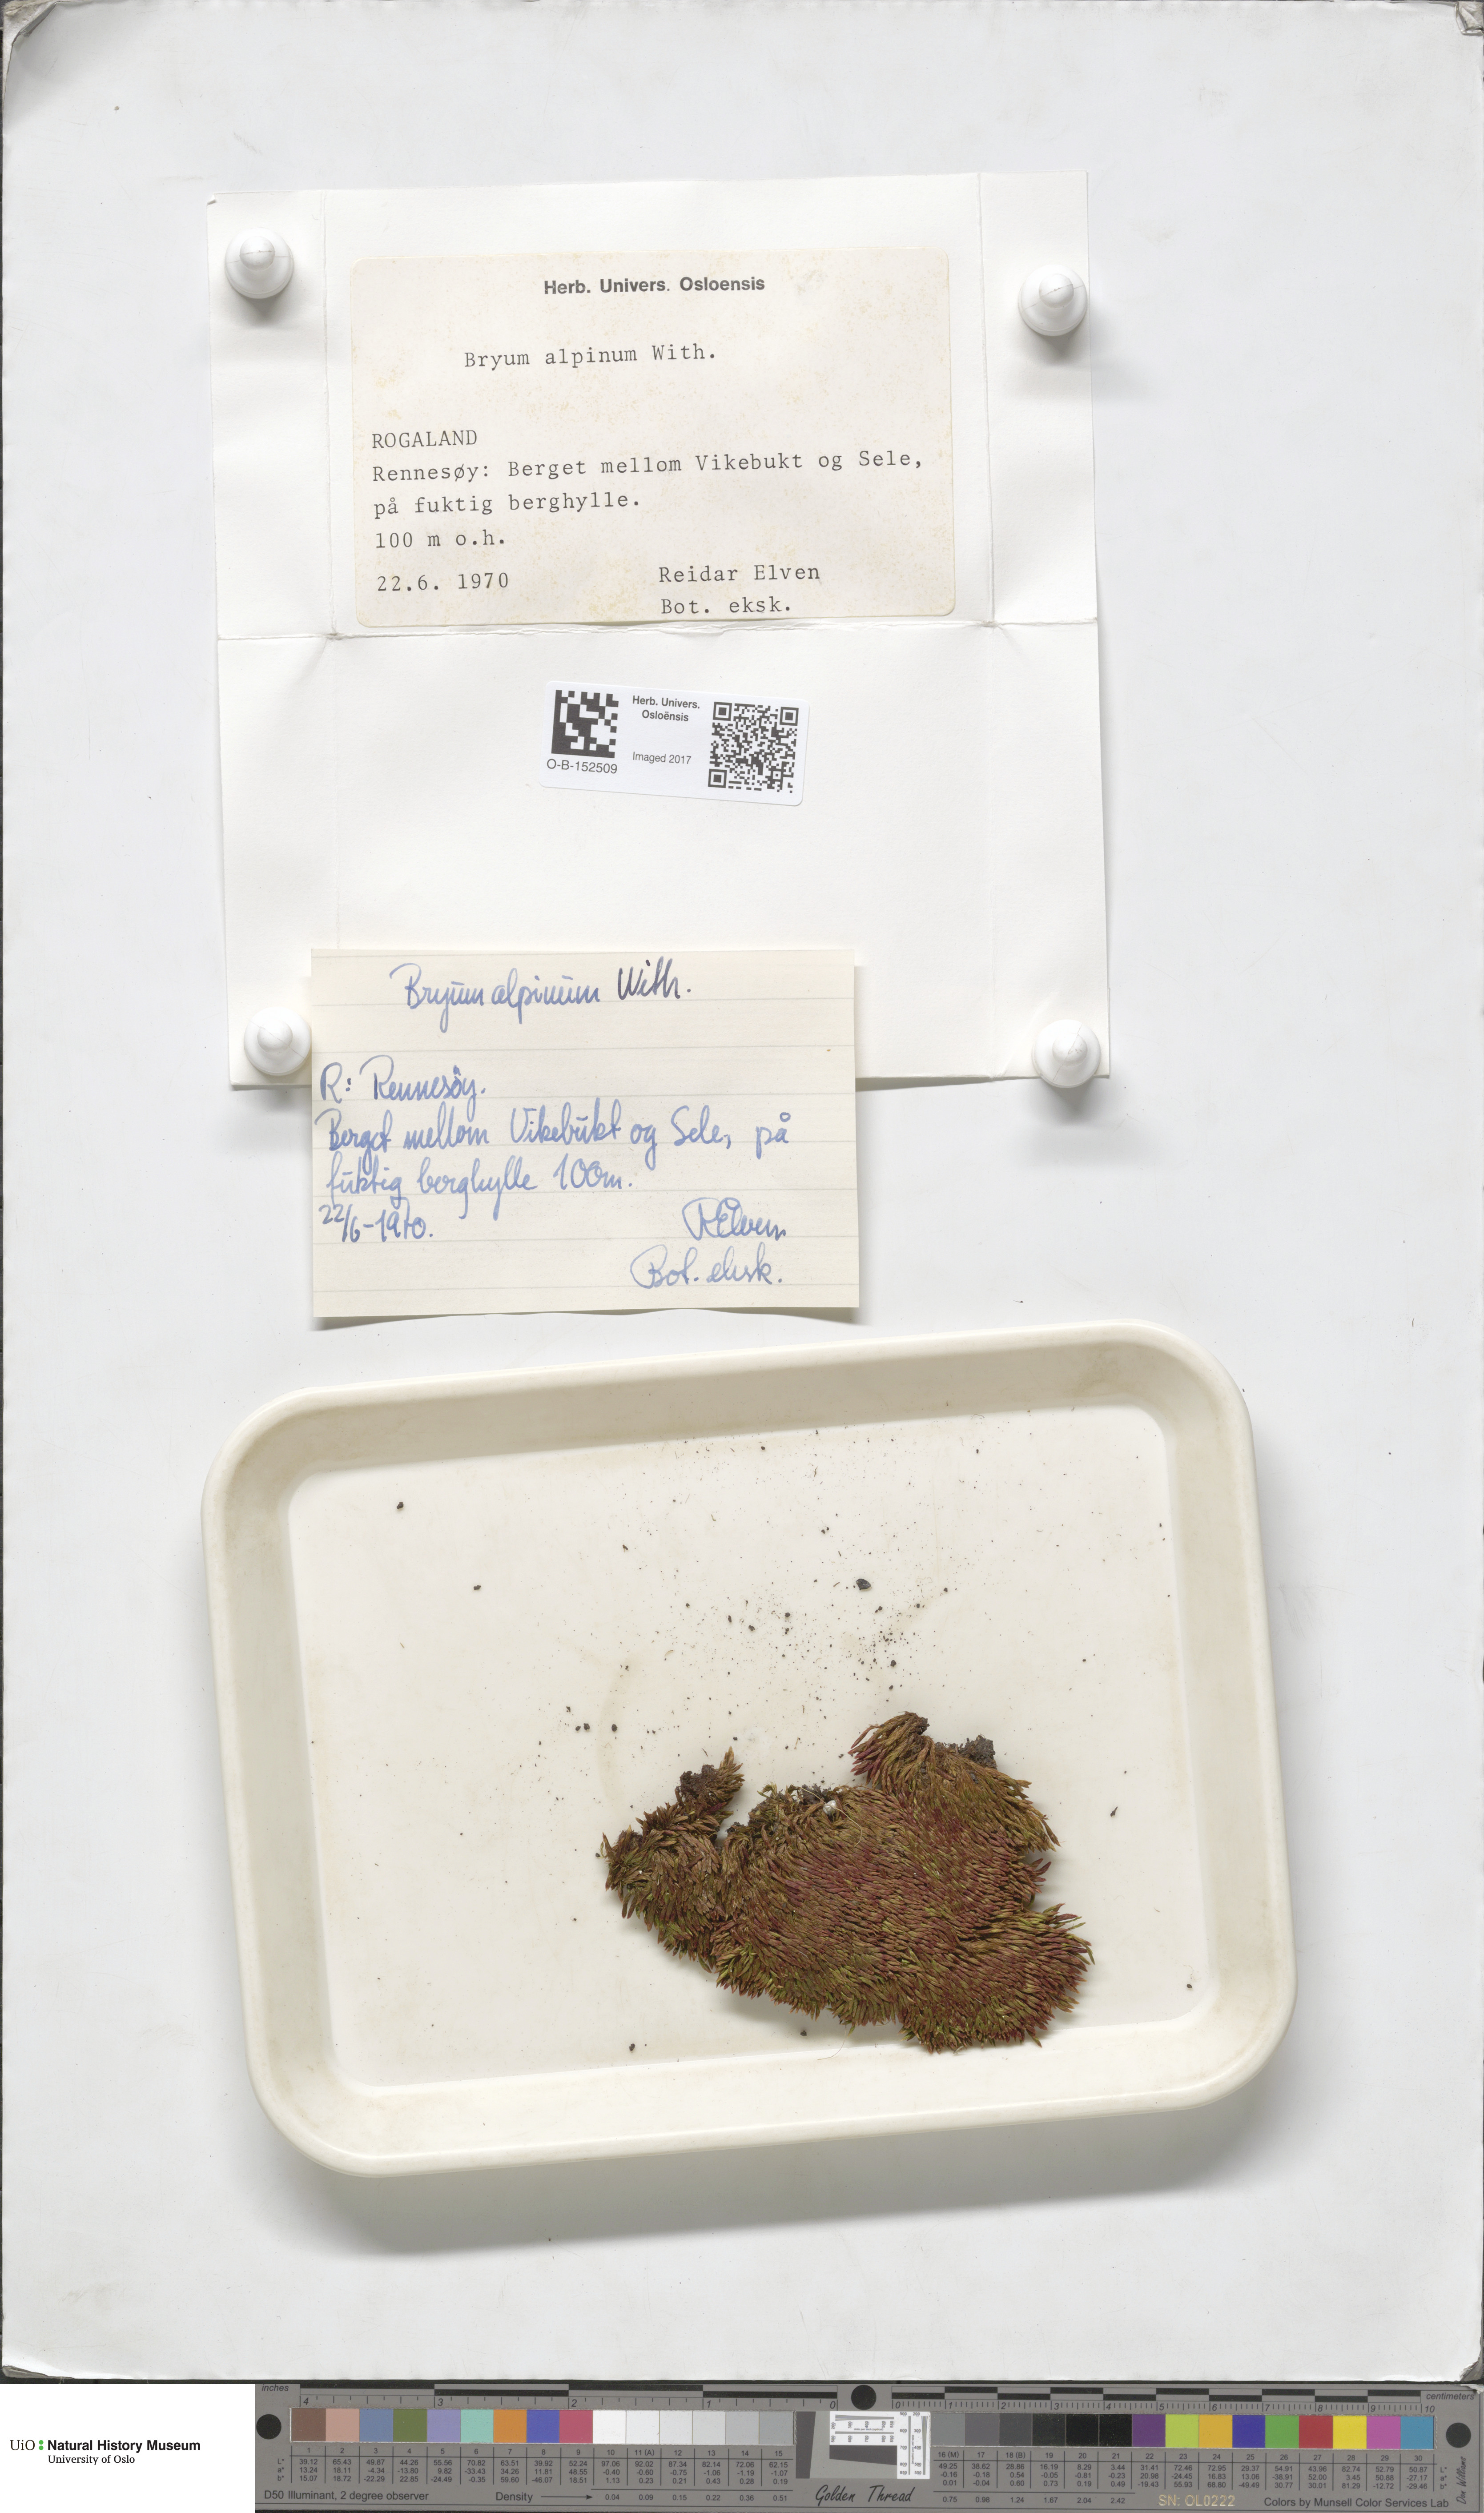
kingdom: Plantae
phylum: Bryophyta
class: Bryopsida
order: Bryales
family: Bryaceae
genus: Imbribryum
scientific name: Imbribryum alpinum
